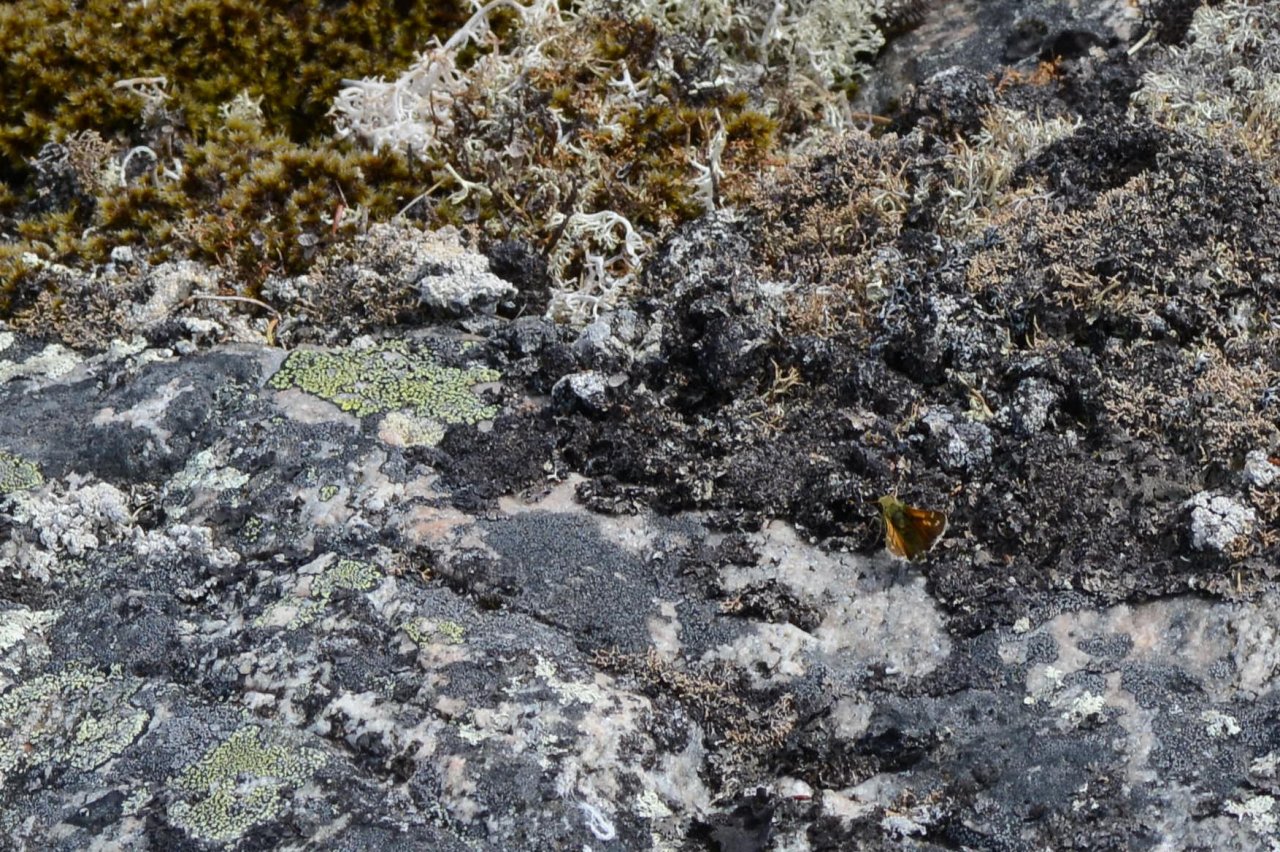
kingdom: Animalia
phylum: Arthropoda
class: Insecta
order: Lepidoptera
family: Hesperiidae
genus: Hesperia
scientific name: Hesperia comma
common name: Common Branded Skipper
